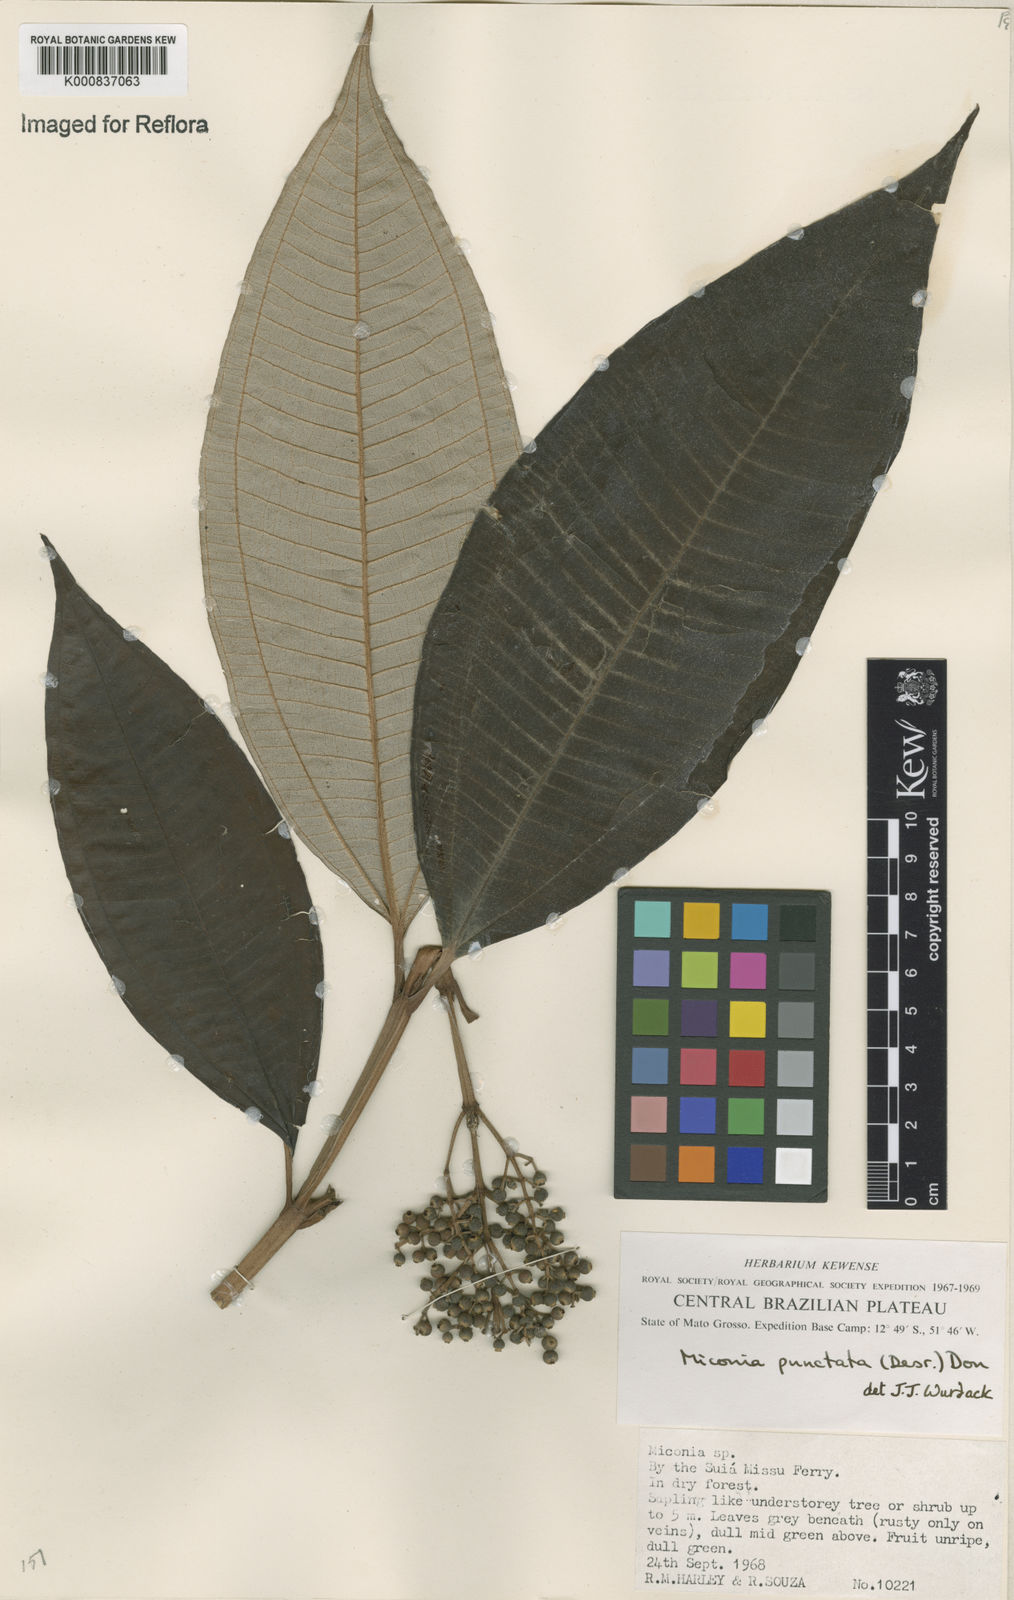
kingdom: Plantae
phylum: Tracheophyta
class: Magnoliopsida
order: Myrtales
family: Melastomataceae
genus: Miconia
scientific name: Miconia punctata
